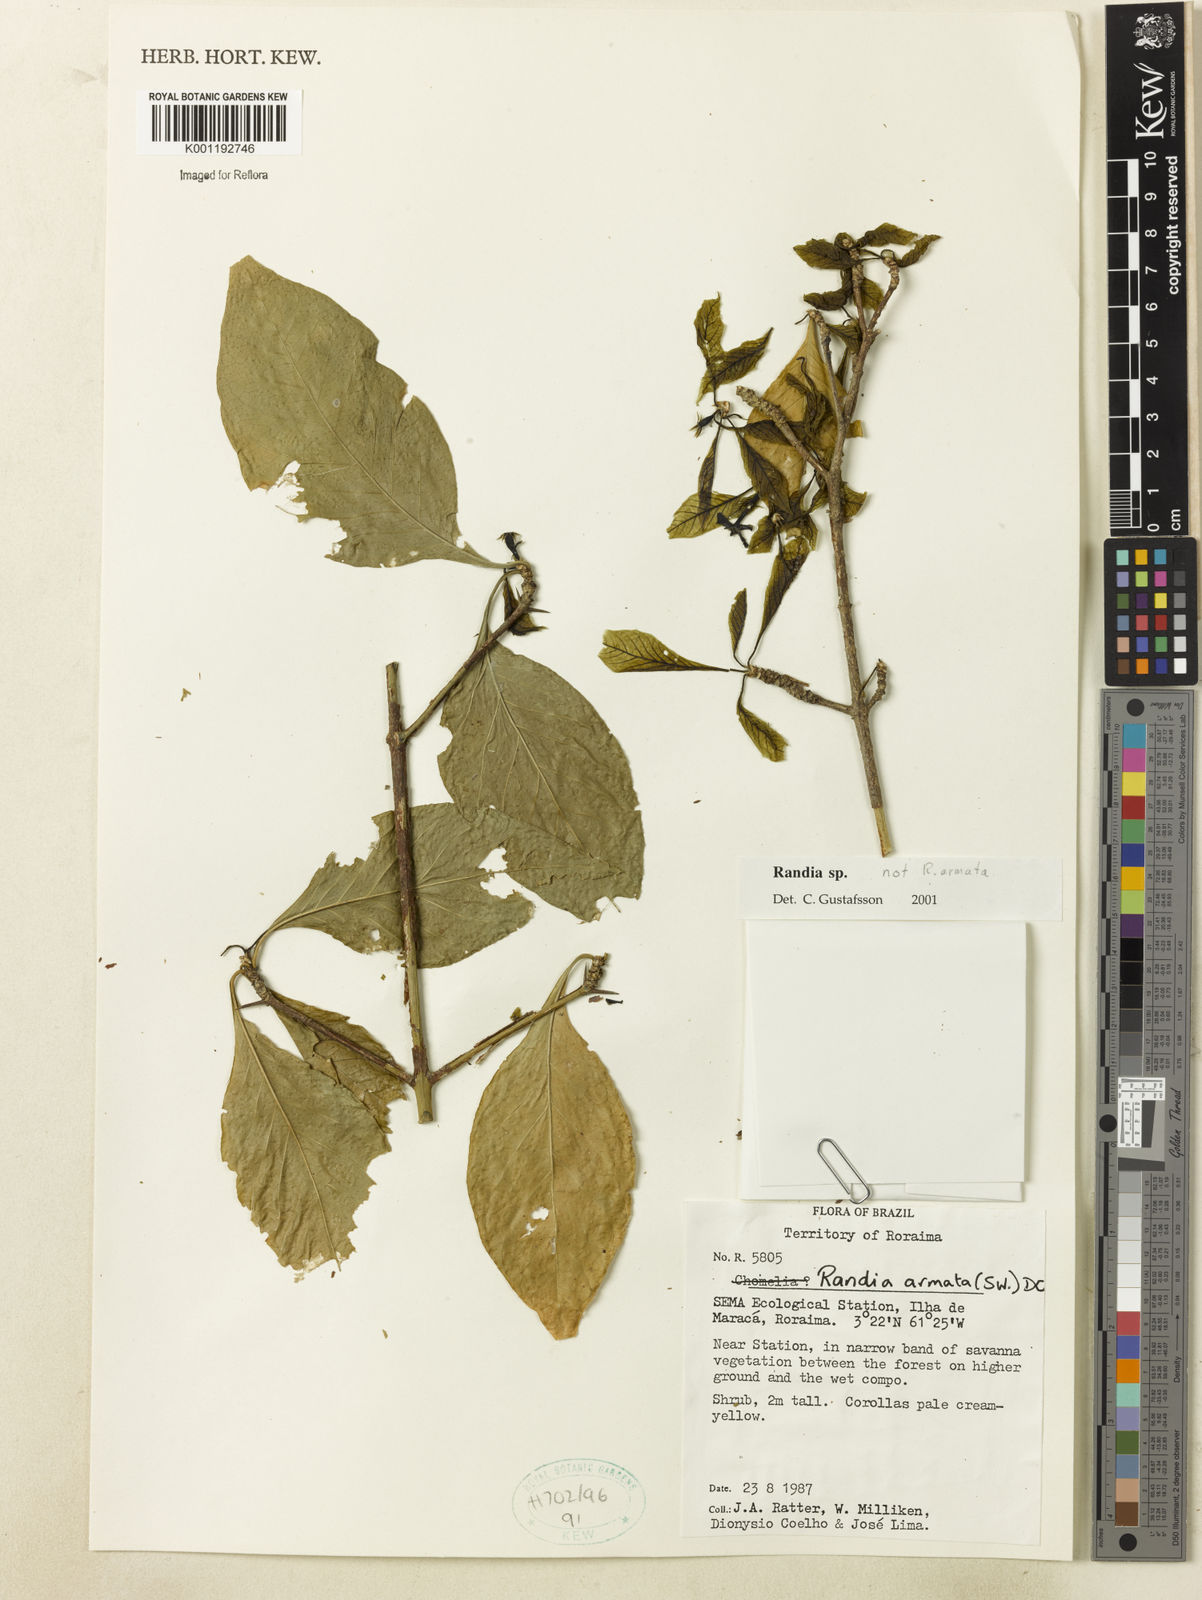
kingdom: Plantae
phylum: Tracheophyta
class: Magnoliopsida
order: Gentianales
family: Rubiaceae
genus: Randia
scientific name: Randia
